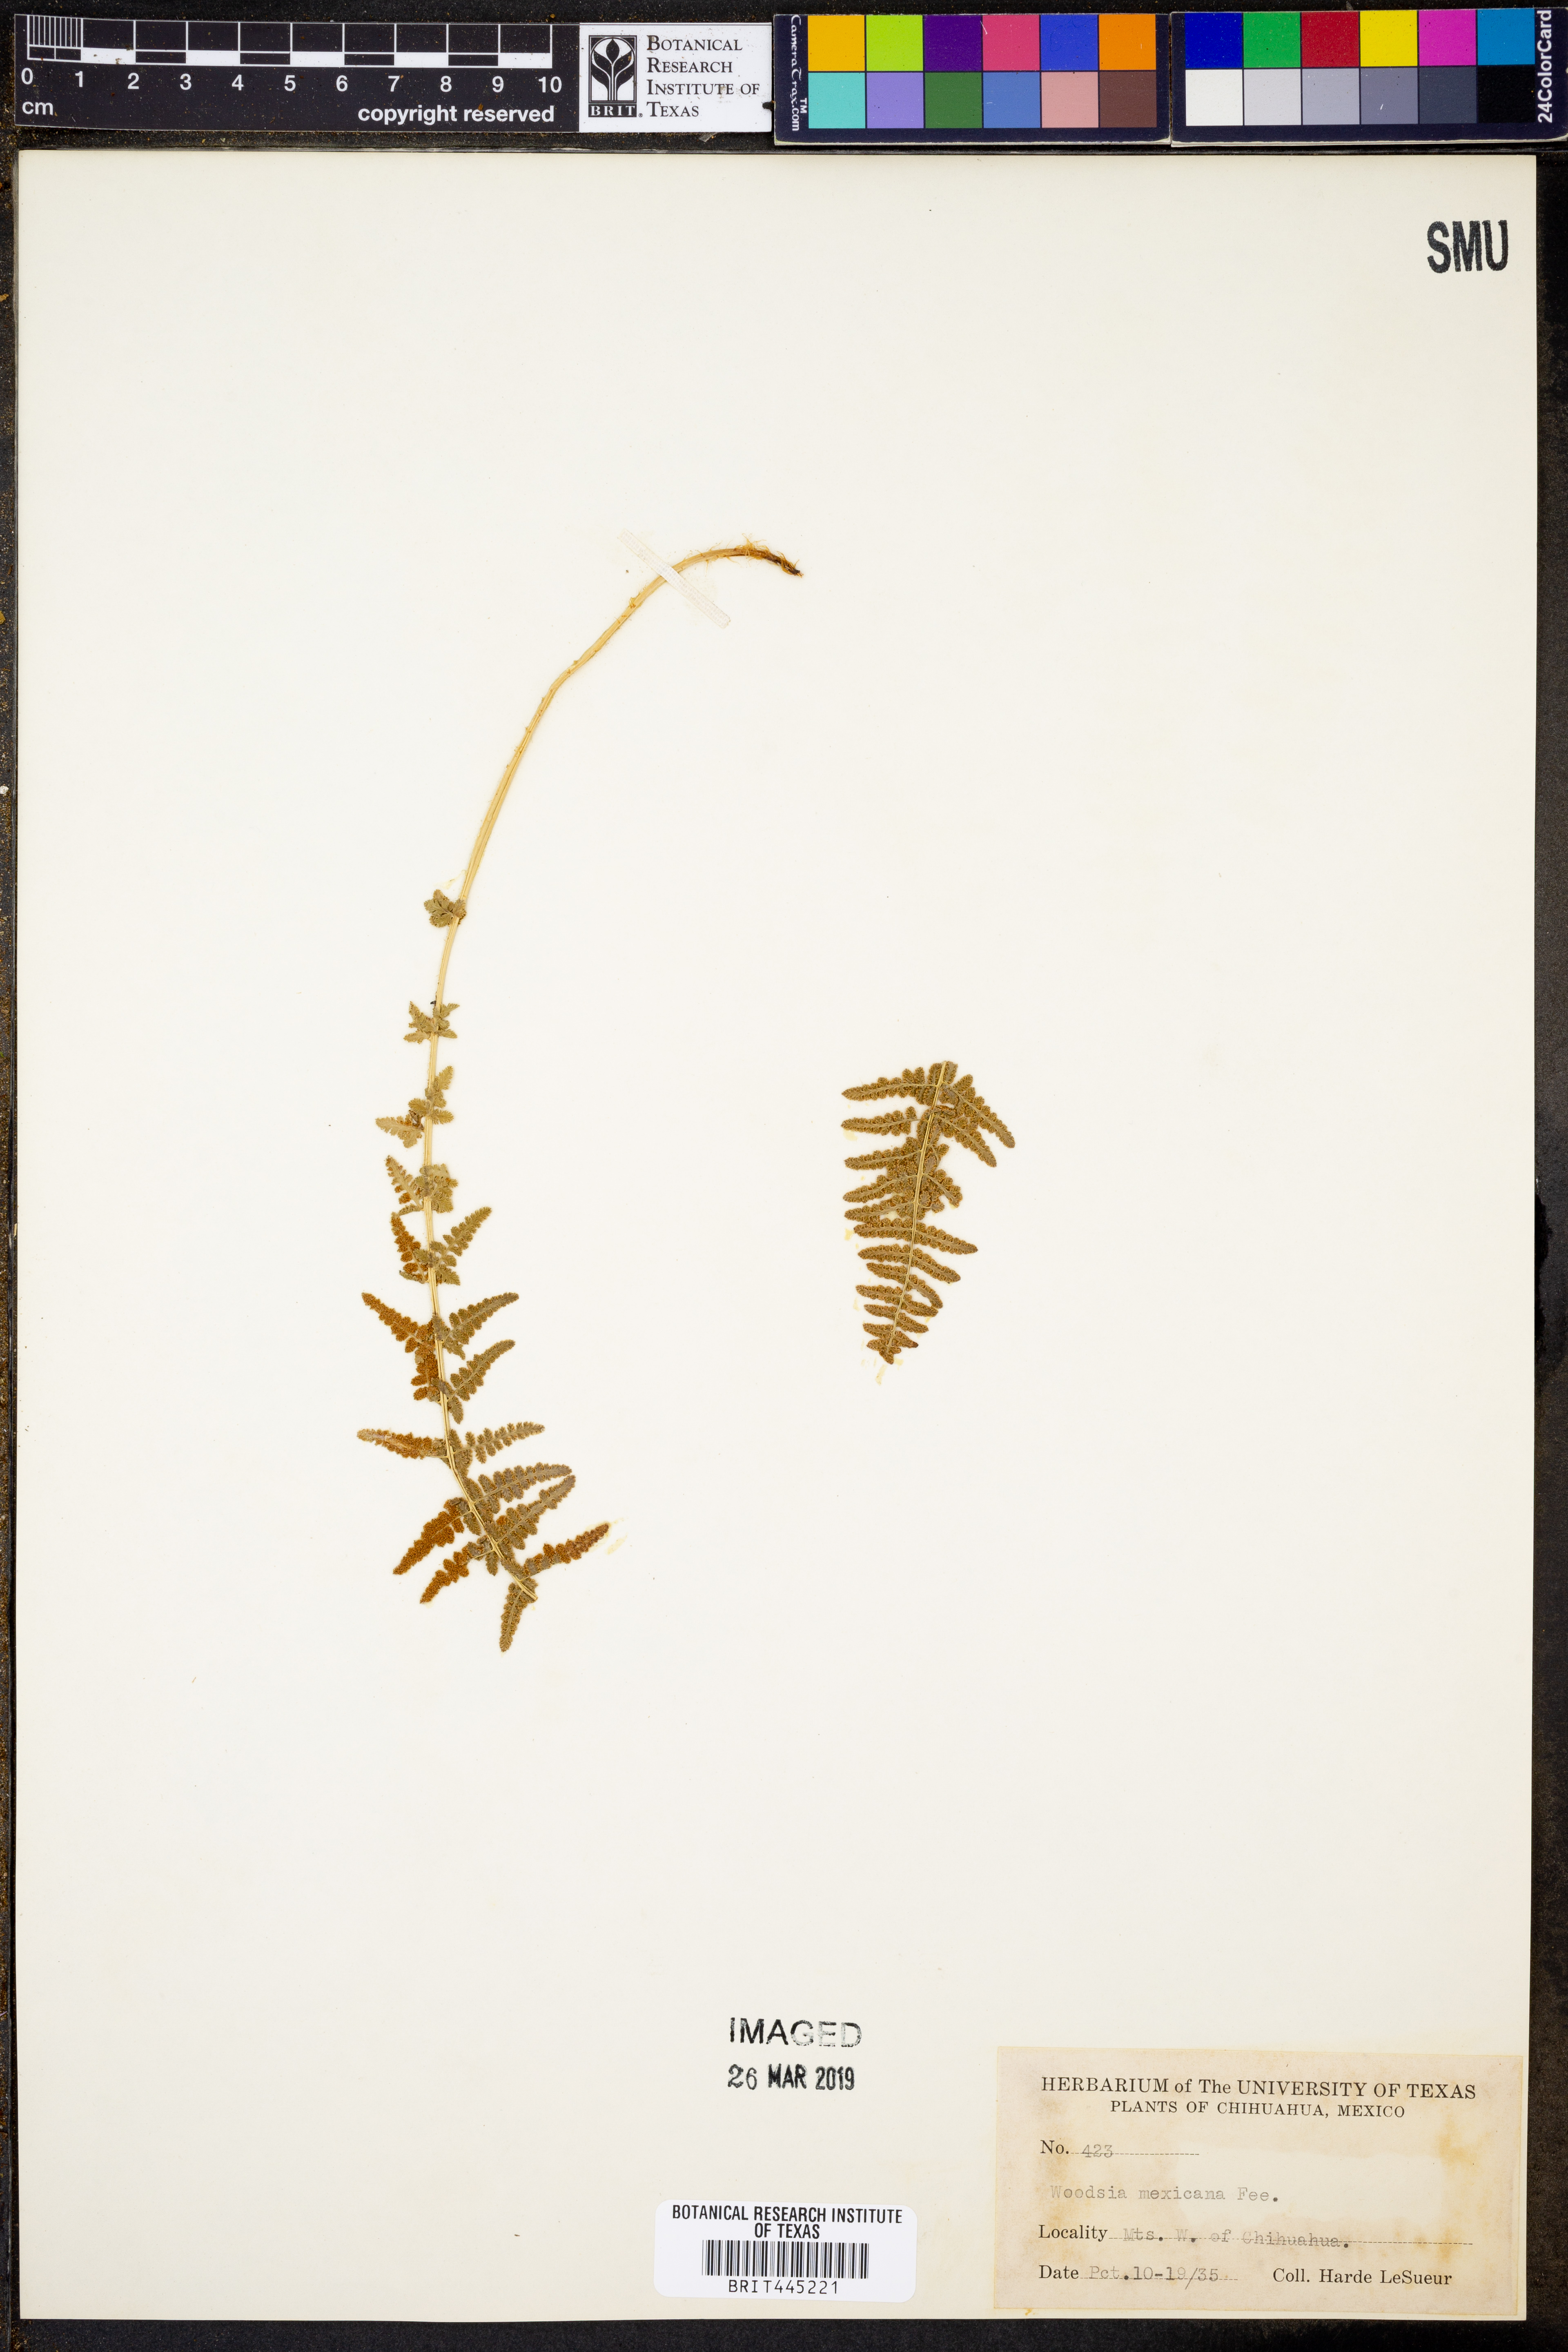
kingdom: Plantae
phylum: Tracheophyta
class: Polypodiopsida
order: Polypodiales
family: Woodsiaceae
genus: Physematium
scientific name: Physematium mexicanum
